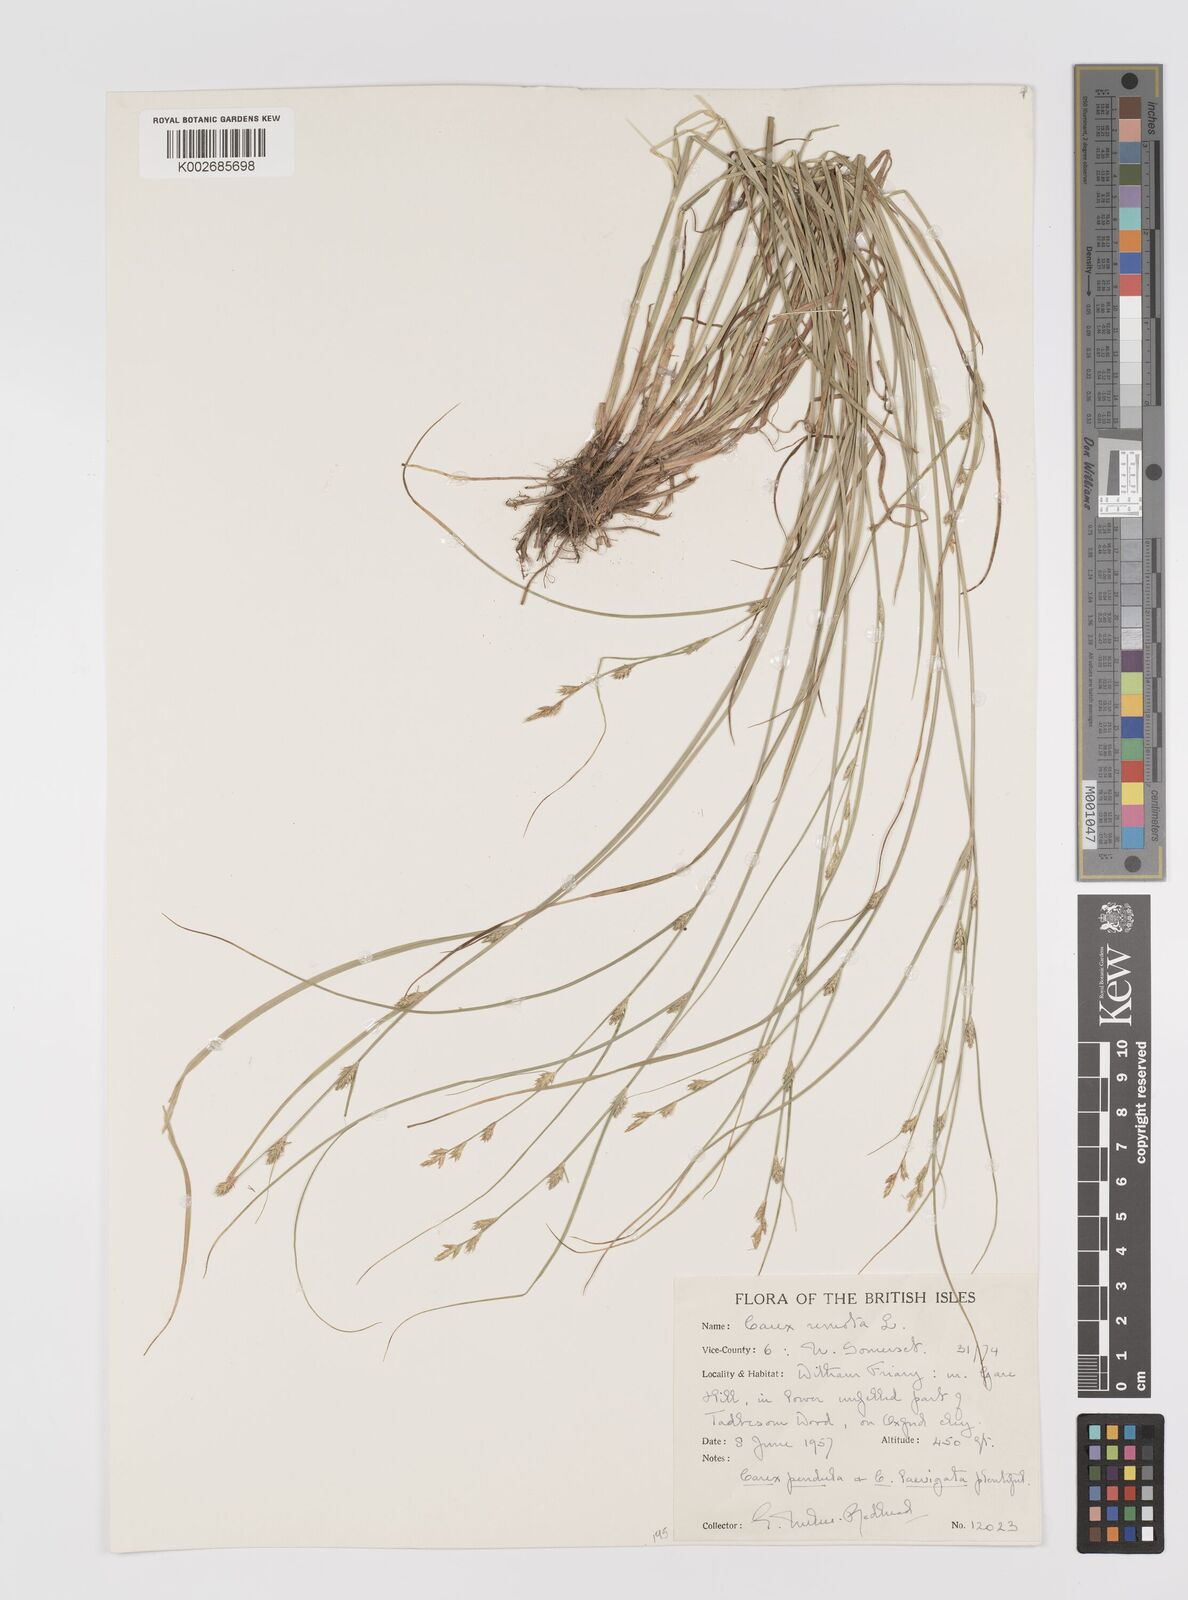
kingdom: Plantae
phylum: Tracheophyta
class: Liliopsida
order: Poales
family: Cyperaceae
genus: Carex
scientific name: Carex remota
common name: Remote sedge
